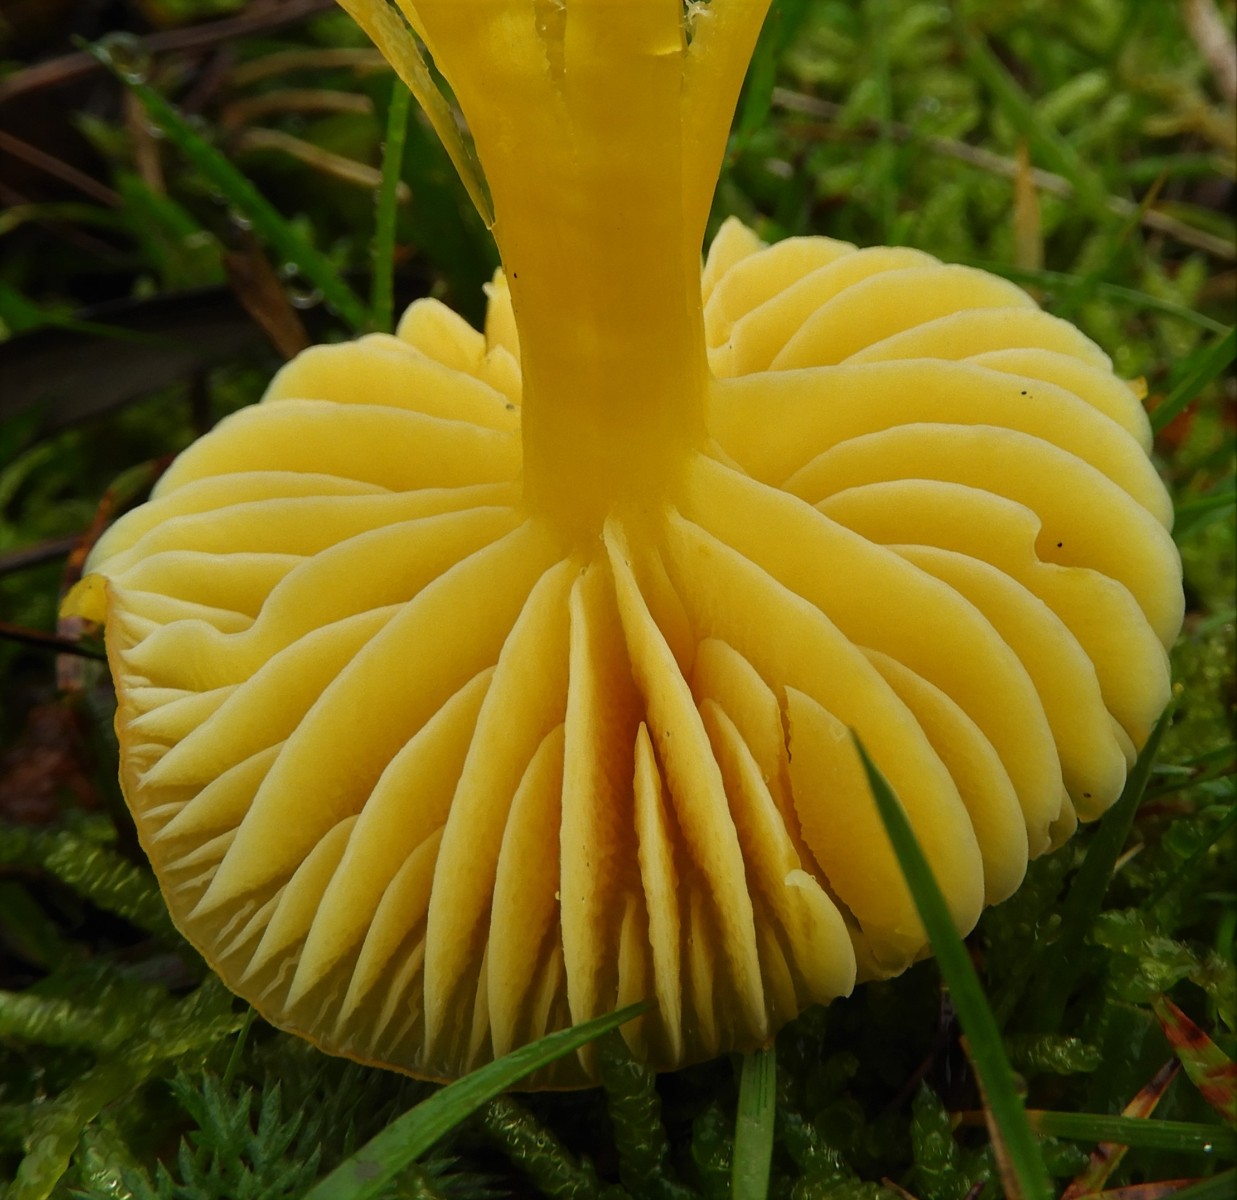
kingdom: Fungi
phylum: Basidiomycota
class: Agaricomycetes
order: Agaricales
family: Hygrophoraceae
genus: Hygrocybe
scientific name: Hygrocybe ceracea
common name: voksgul vokshat
